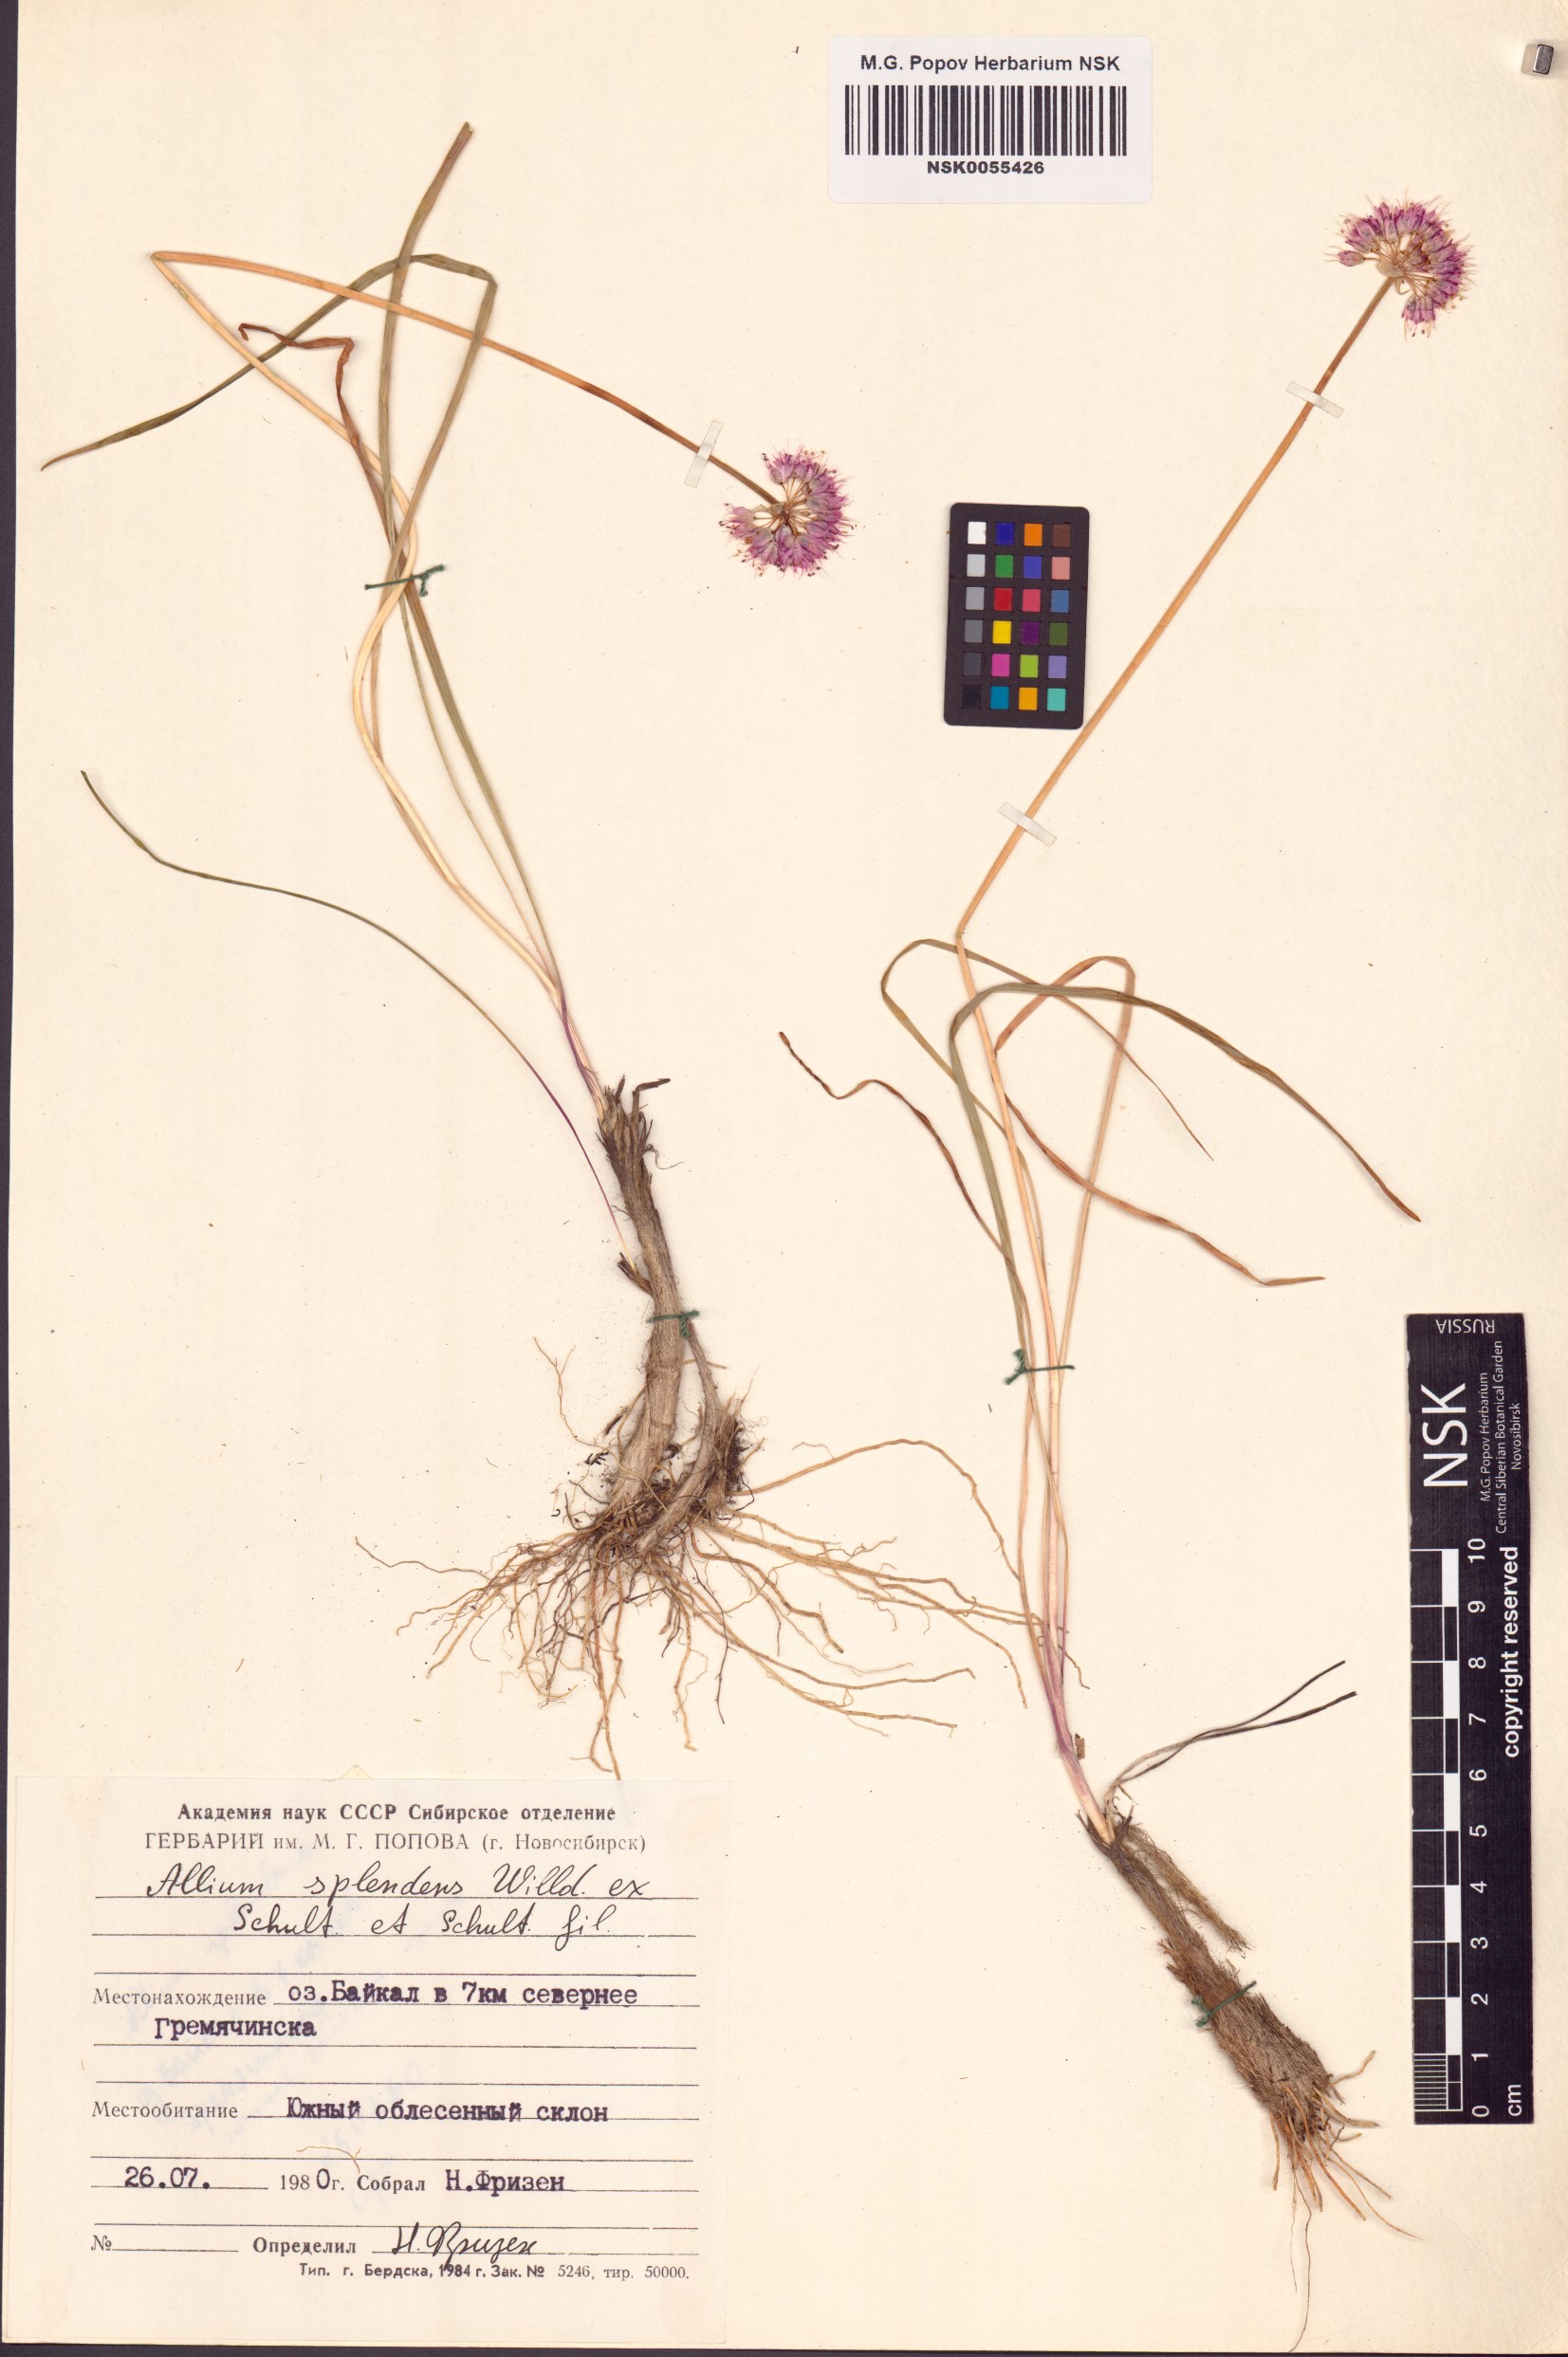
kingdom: Plantae
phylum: Tracheophyta
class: Liliopsida
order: Asparagales
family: Amaryllidaceae
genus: Allium
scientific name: Allium splendens
